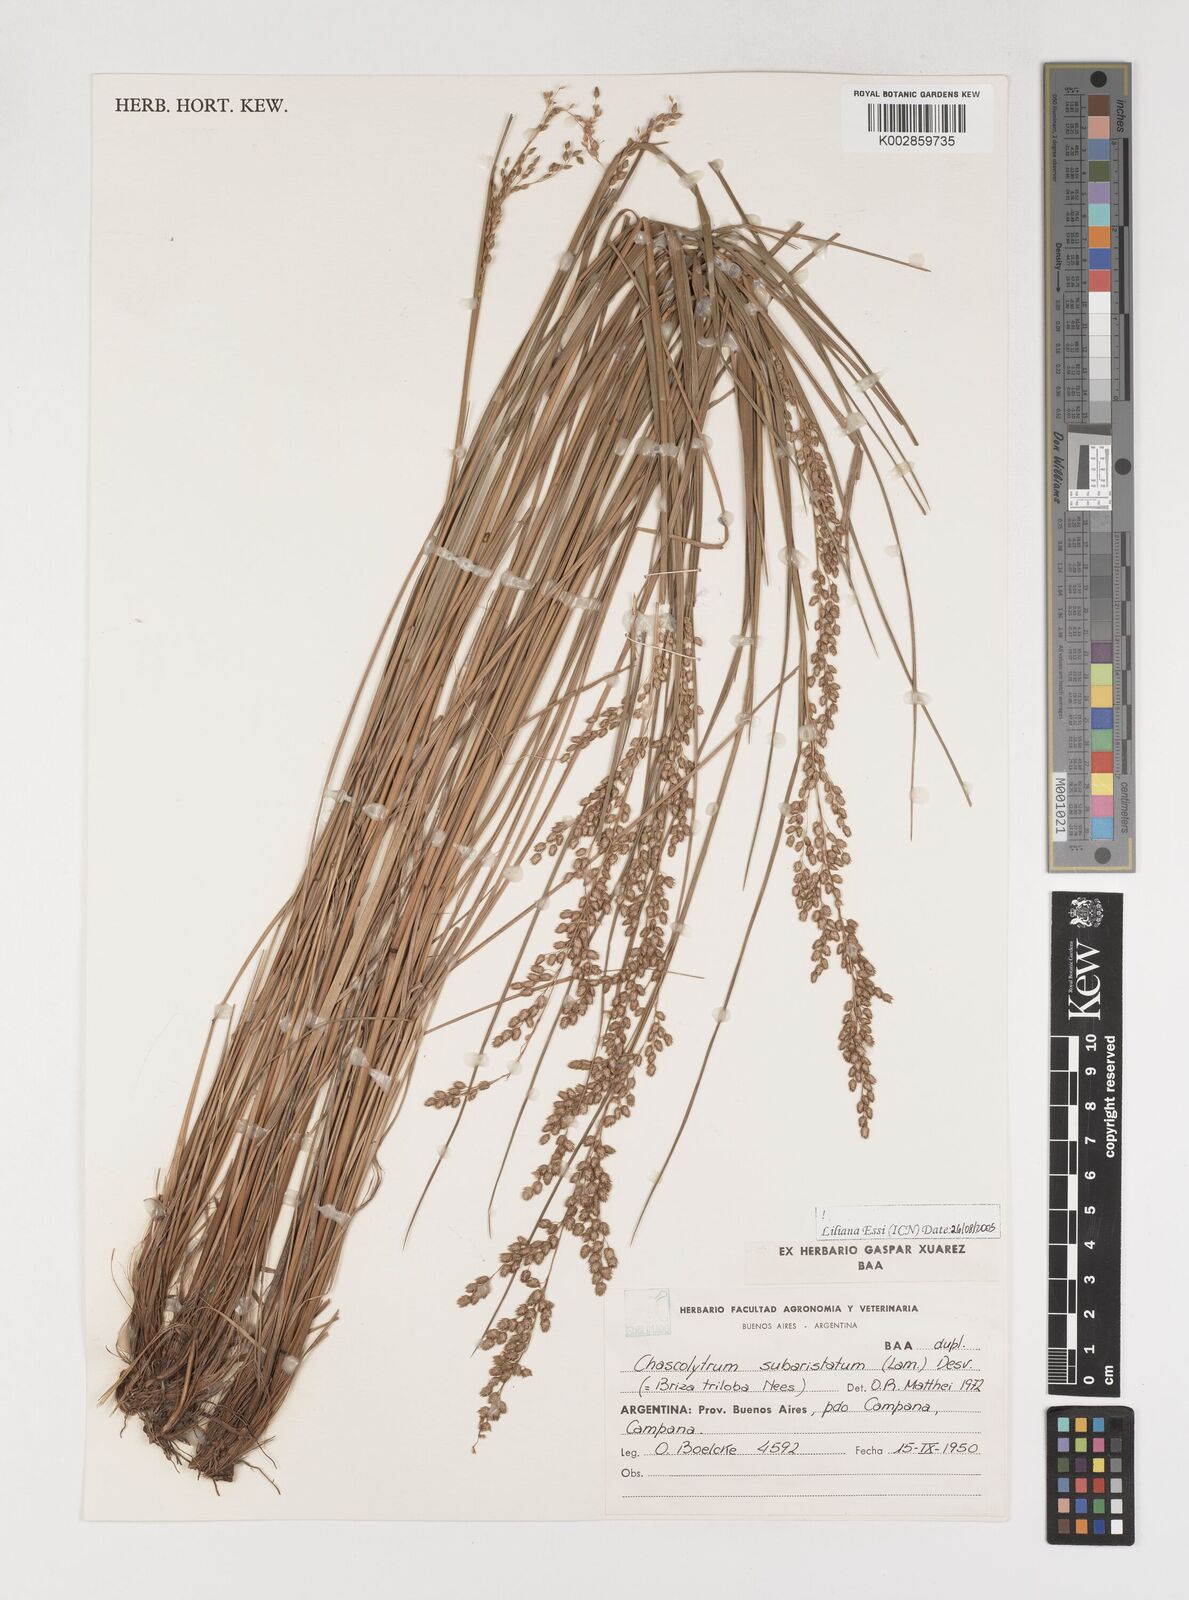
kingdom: Plantae
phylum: Tracheophyta
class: Liliopsida
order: Poales
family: Poaceae
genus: Chascolytrum
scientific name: Chascolytrum subaristatum
